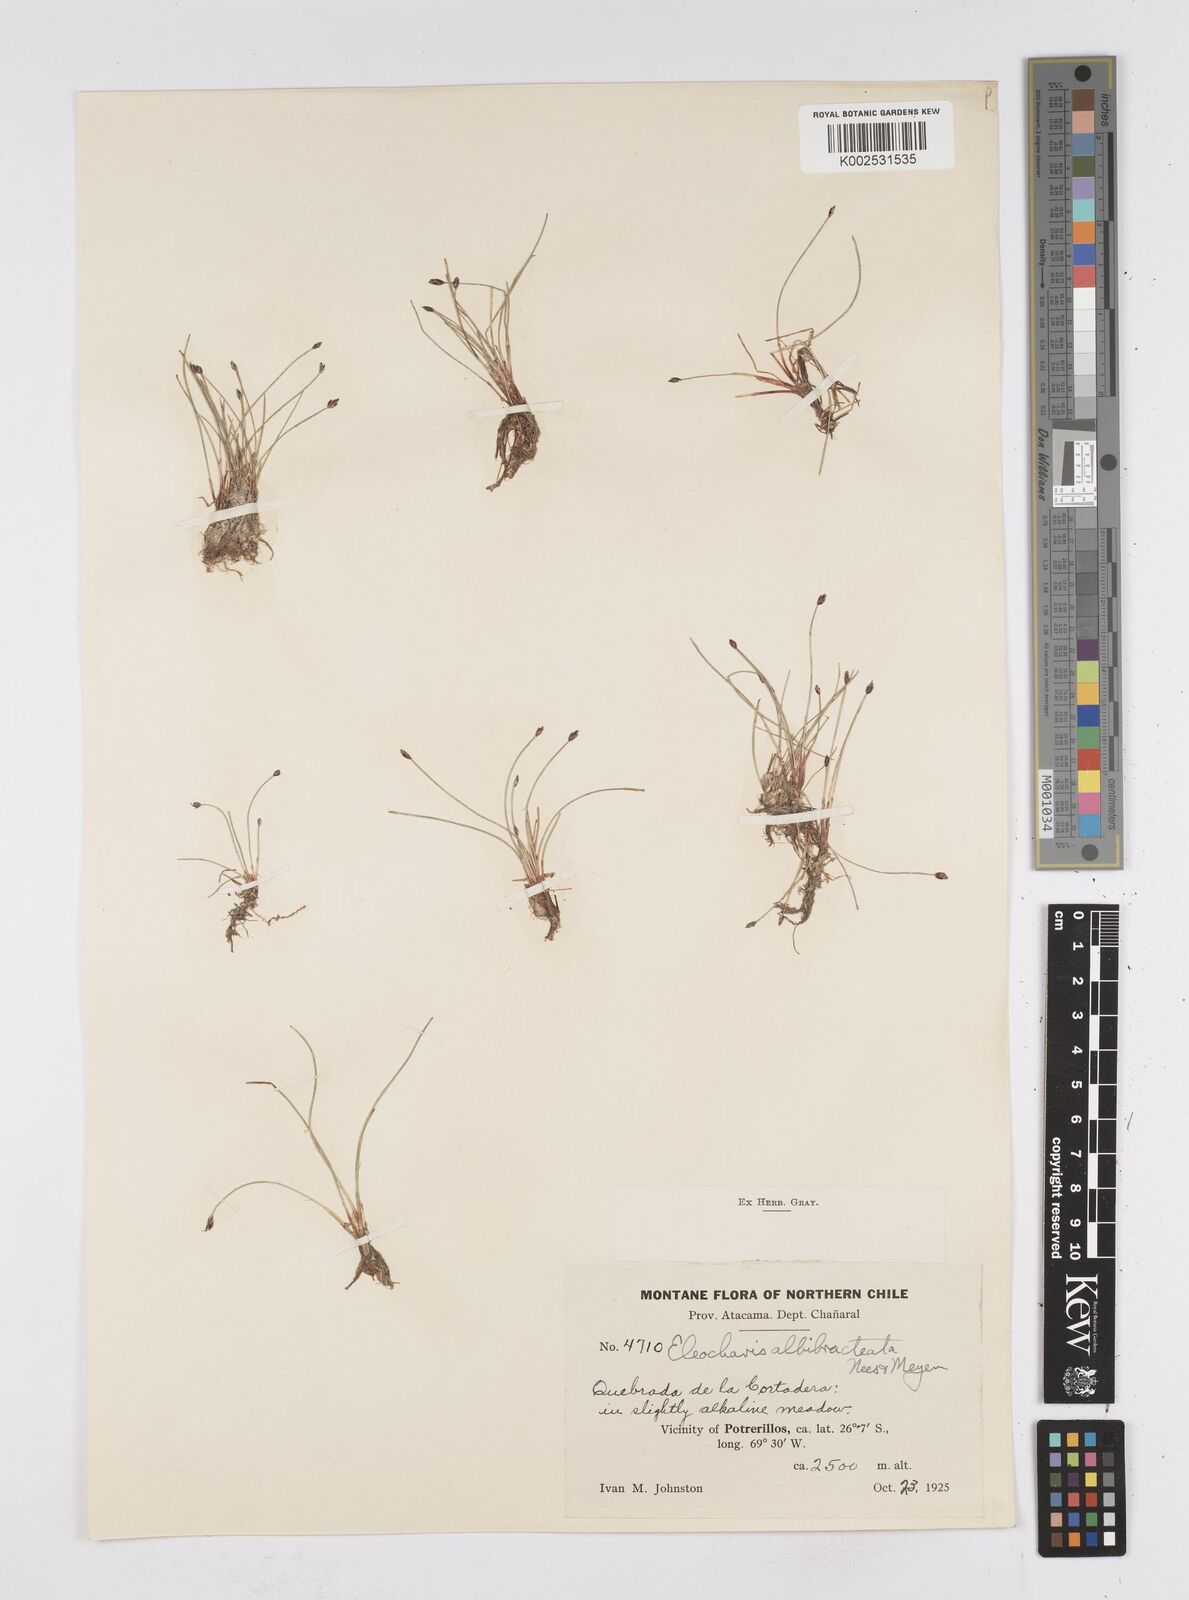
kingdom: Plantae
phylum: Tracheophyta
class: Liliopsida
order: Poales
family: Cyperaceae
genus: Eleocharis
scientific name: Eleocharis albibracteata
